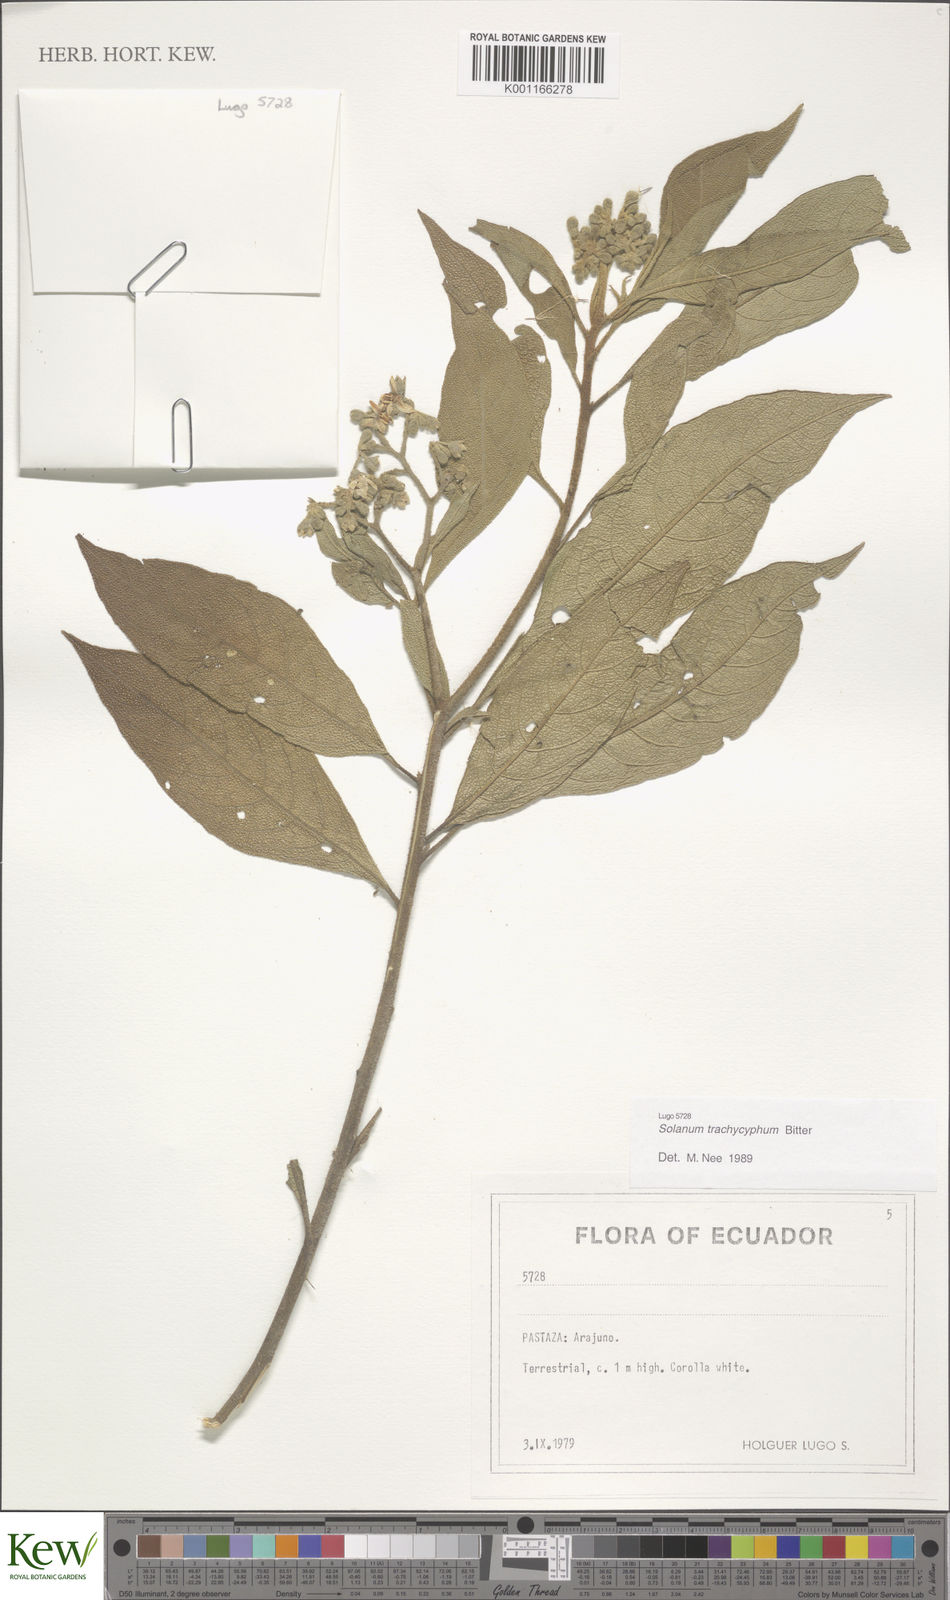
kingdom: Plantae
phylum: Tracheophyta
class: Magnoliopsida
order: Solanales
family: Solanaceae
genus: Solanum
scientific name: Solanum trachycyphum
